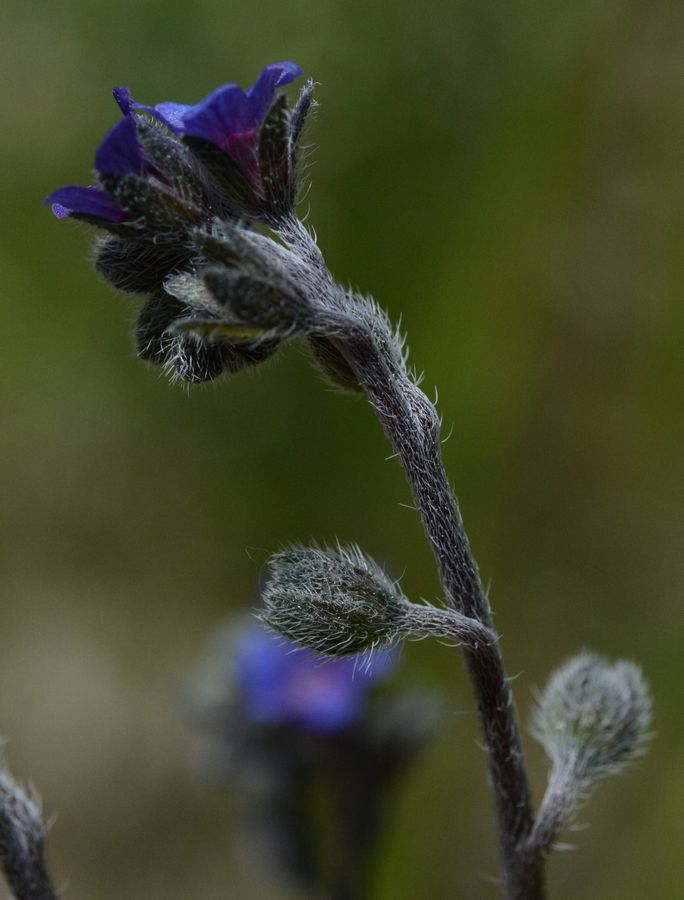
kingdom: Plantae
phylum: Tracheophyta
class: Magnoliopsida
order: Boraginales
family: Boraginaceae
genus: Asperugo
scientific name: Asperugo procumbens
